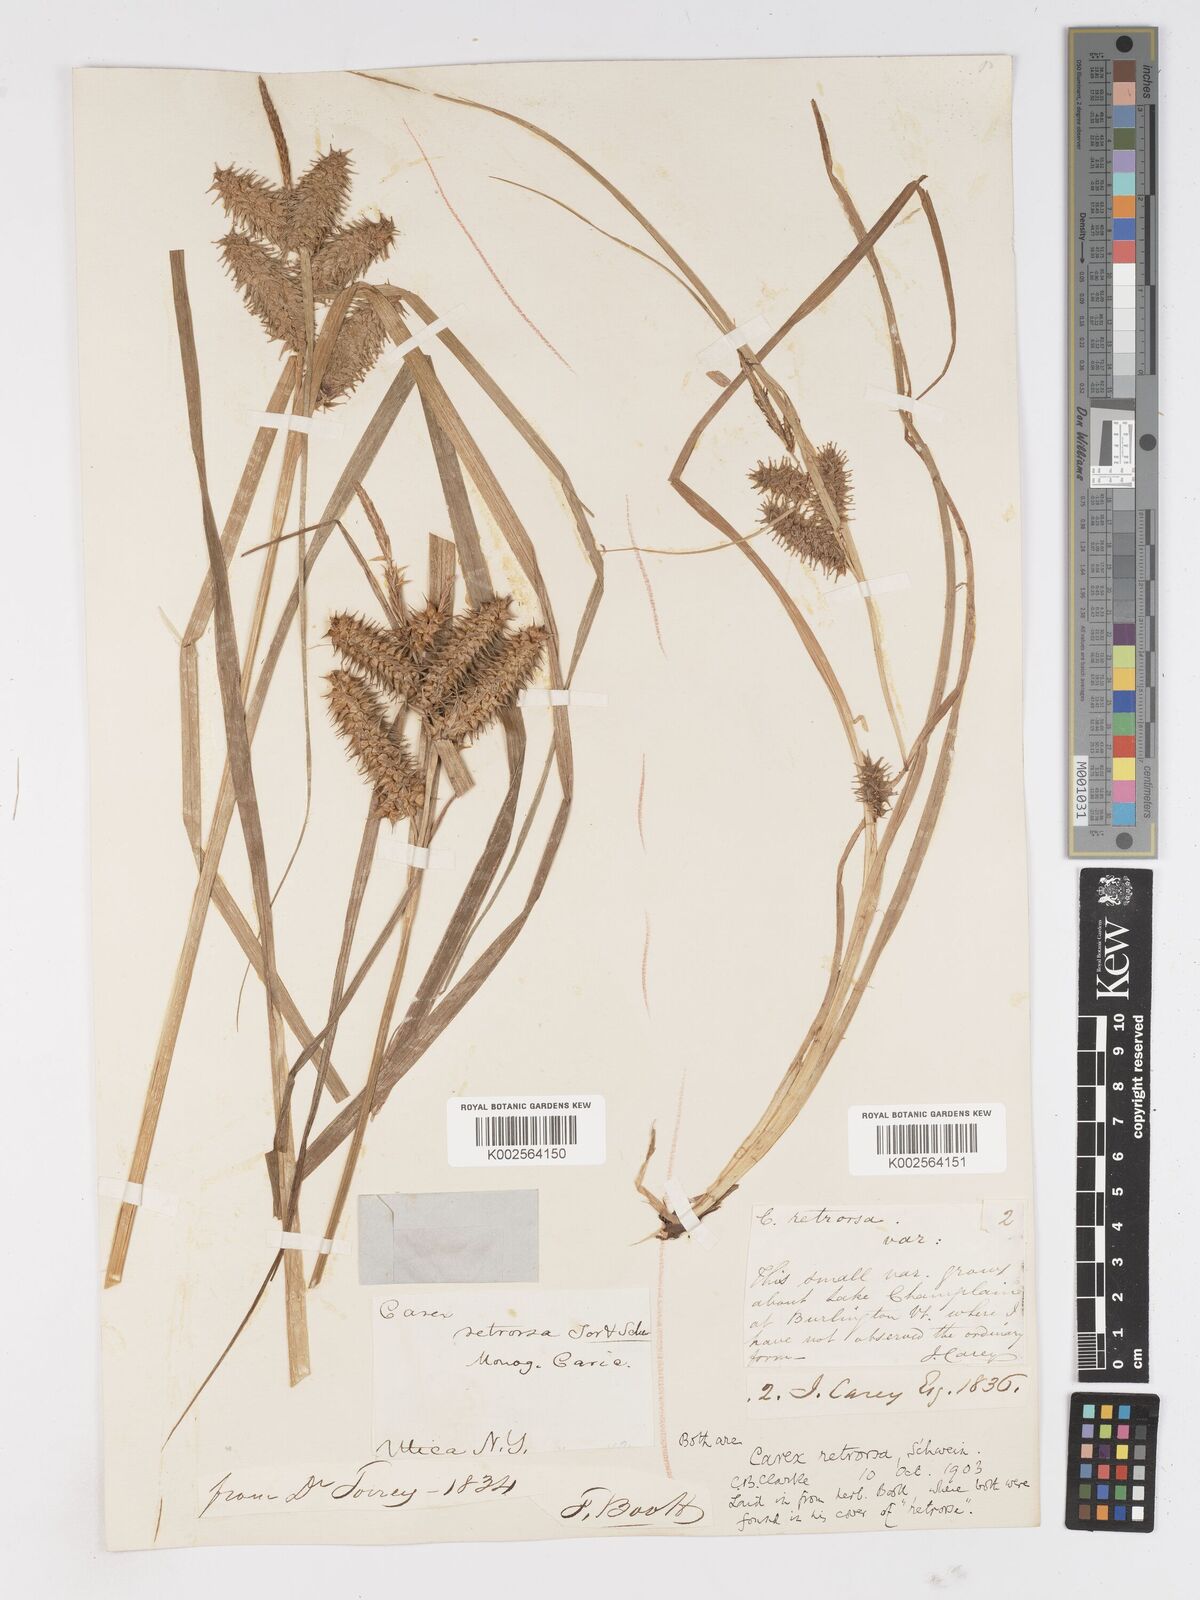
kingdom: Plantae
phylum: Tracheophyta
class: Liliopsida
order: Poales
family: Cyperaceae
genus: Carex
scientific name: Carex retrorsa
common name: Knot-sheath sedge
